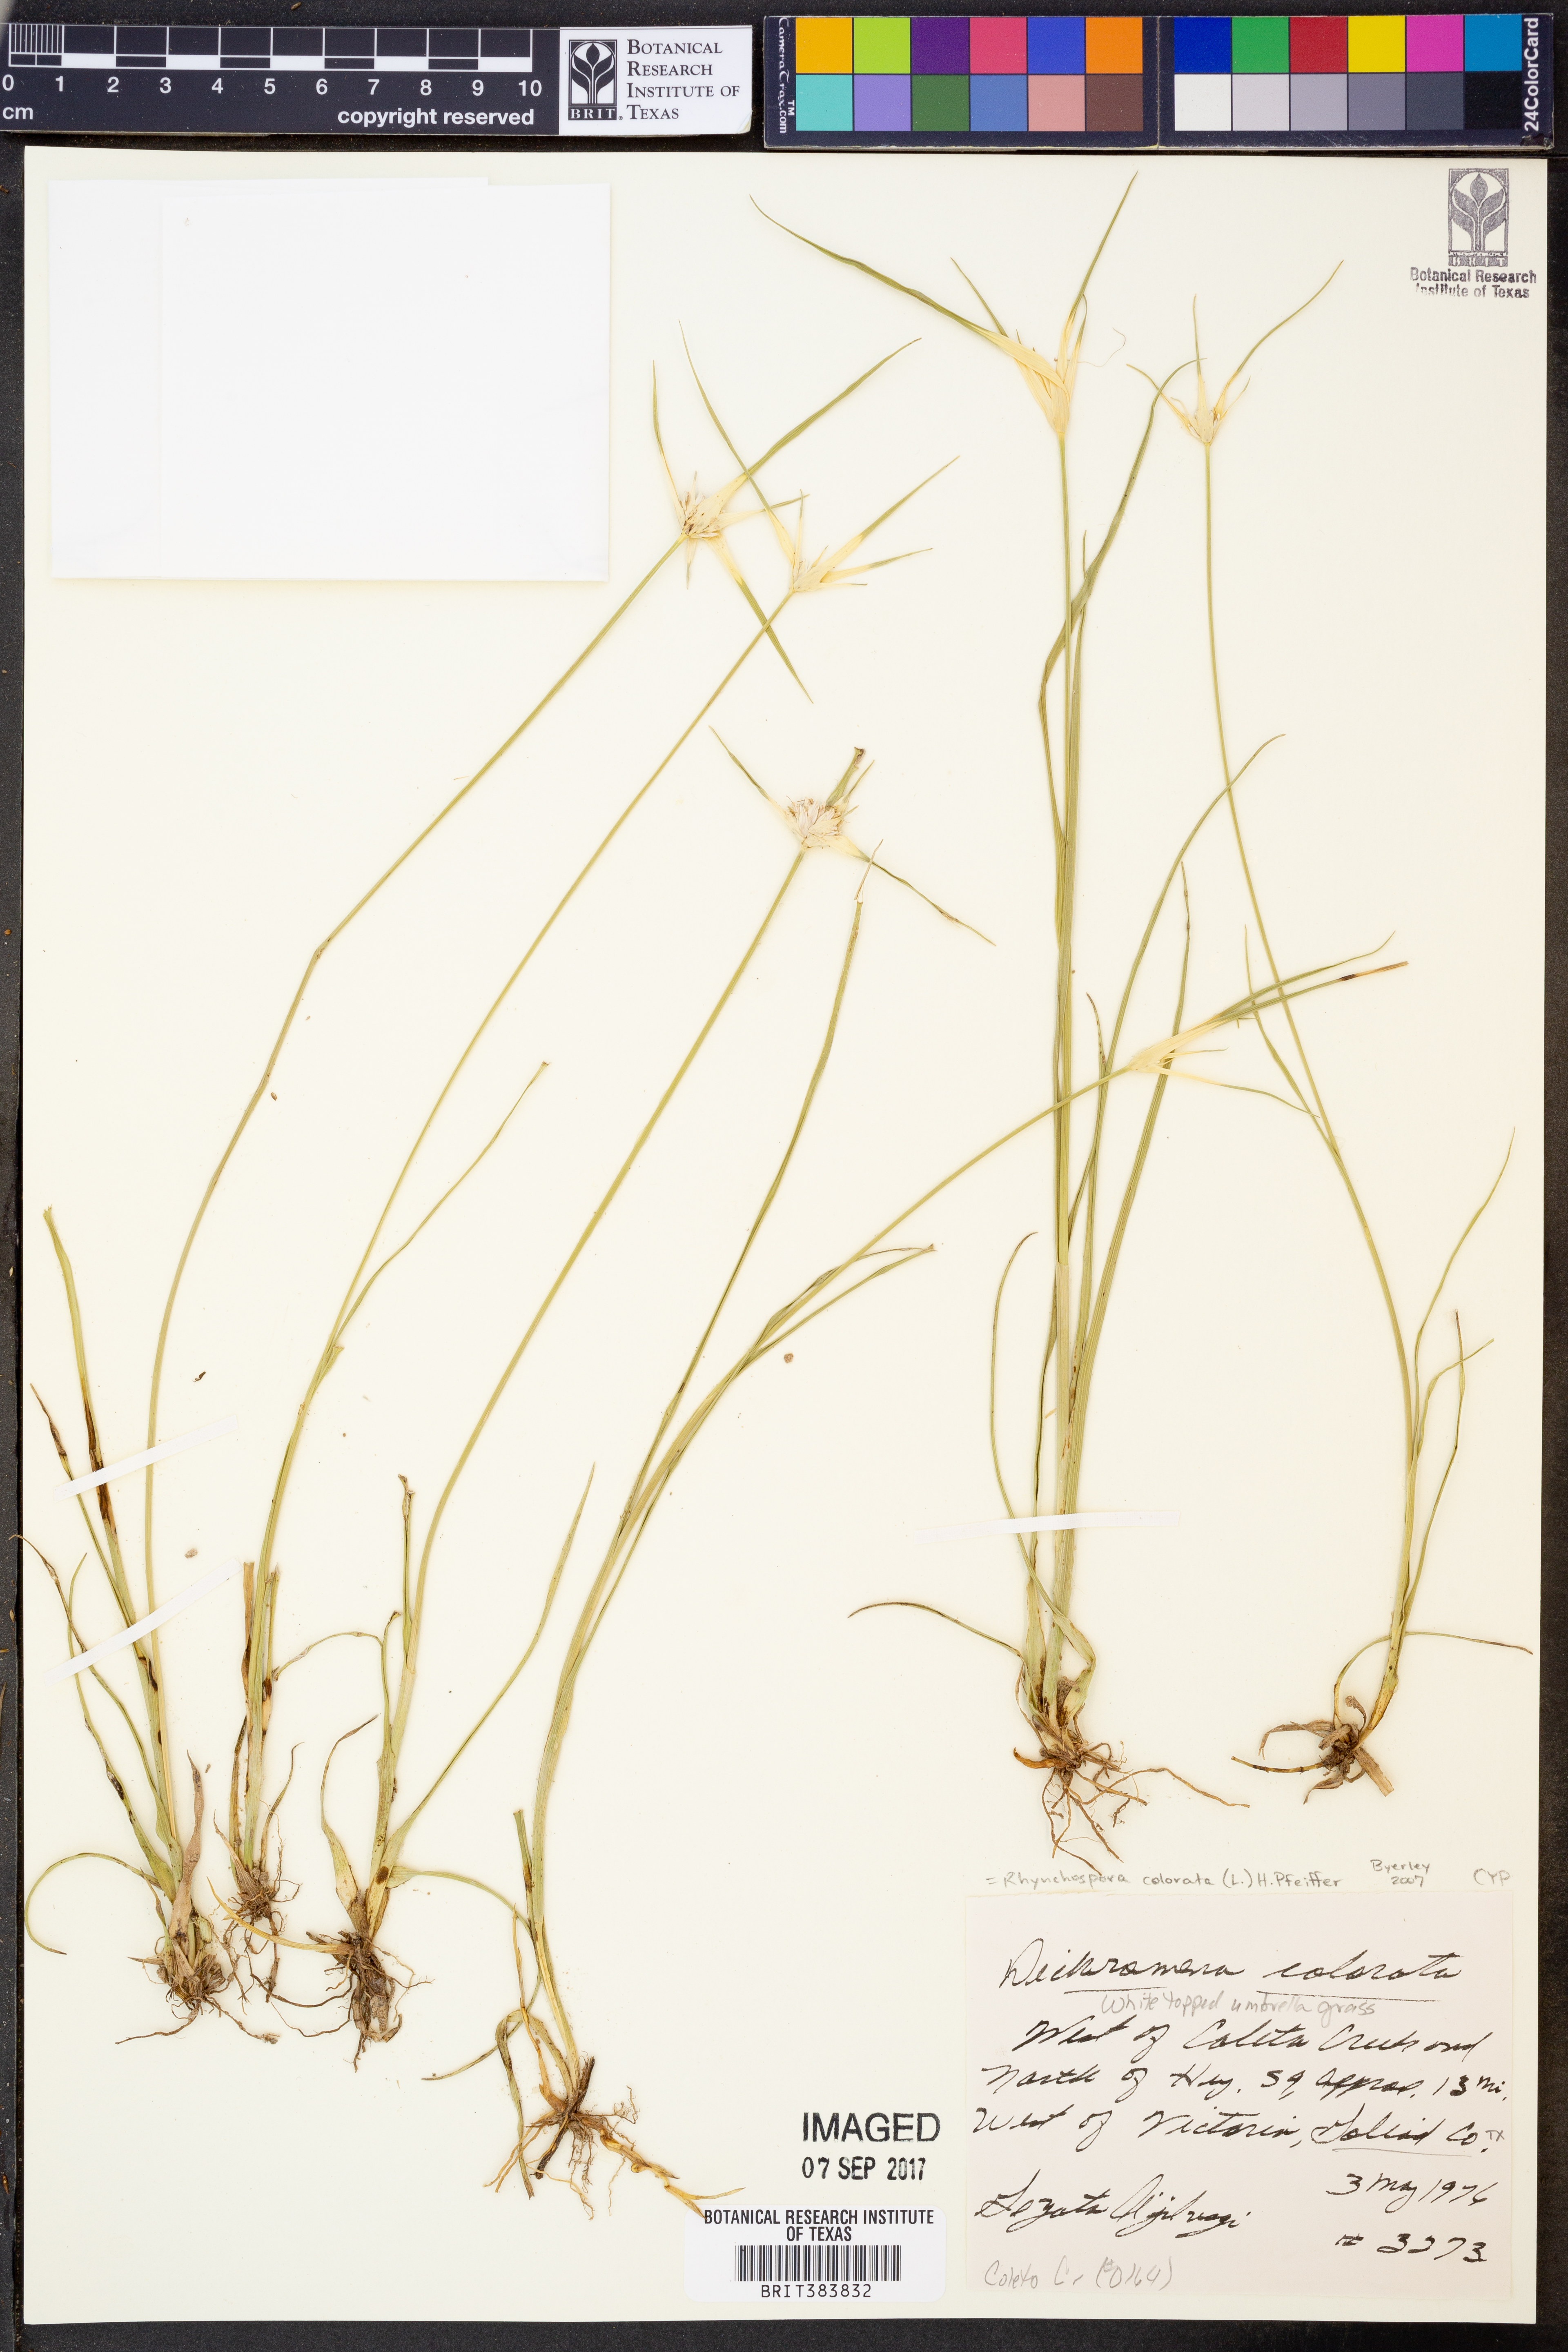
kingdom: Plantae
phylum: Tracheophyta
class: Liliopsida
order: Poales
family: Cyperaceae
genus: Rhynchospora
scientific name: Rhynchospora colorata
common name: Star sedge
